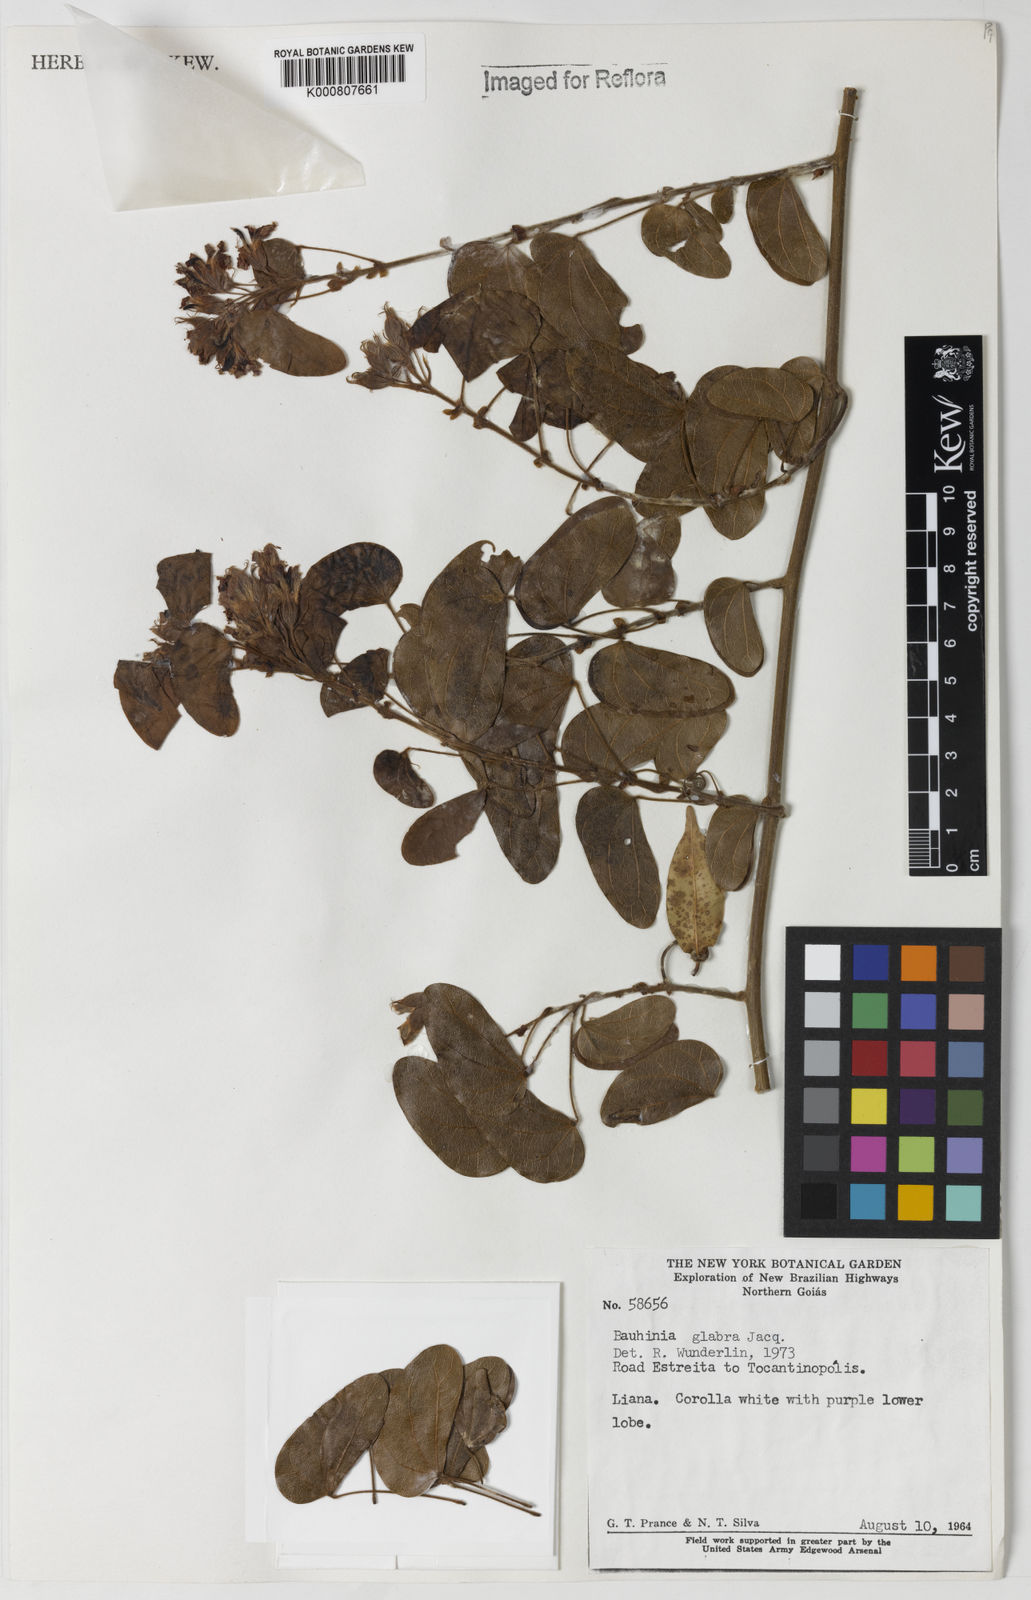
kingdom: Plantae
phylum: Tracheophyta
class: Magnoliopsida
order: Fabales
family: Fabaceae
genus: Schnella
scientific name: Schnella glabra
